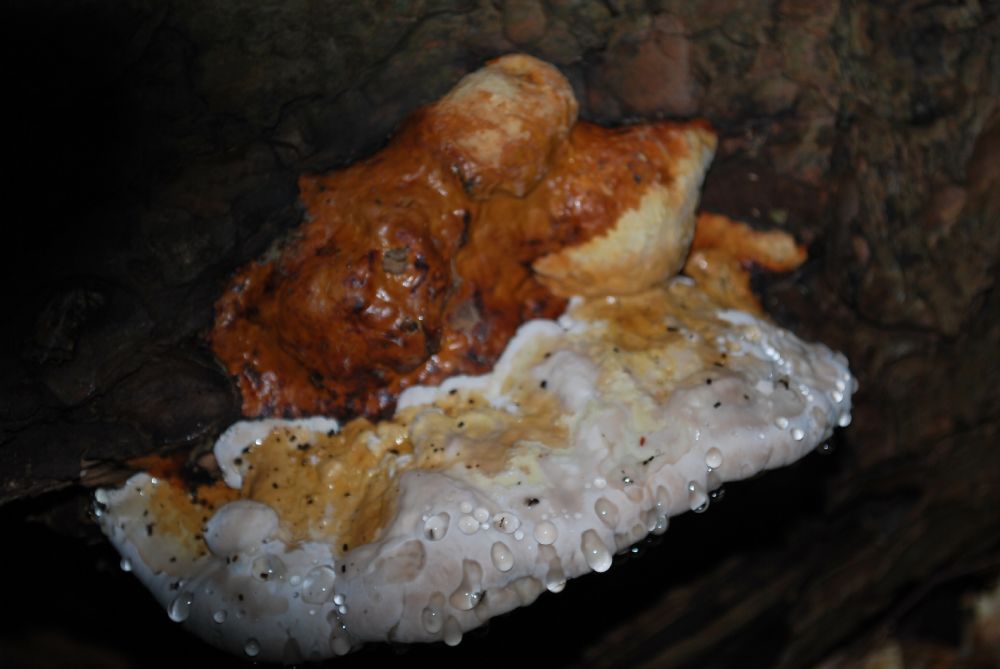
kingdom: Fungi
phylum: Basidiomycota
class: Agaricomycetes
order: Polyporales
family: Fomitopsidaceae
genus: Fomitopsis
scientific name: Fomitopsis pinicola
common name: randbæltet hovporesvamp
